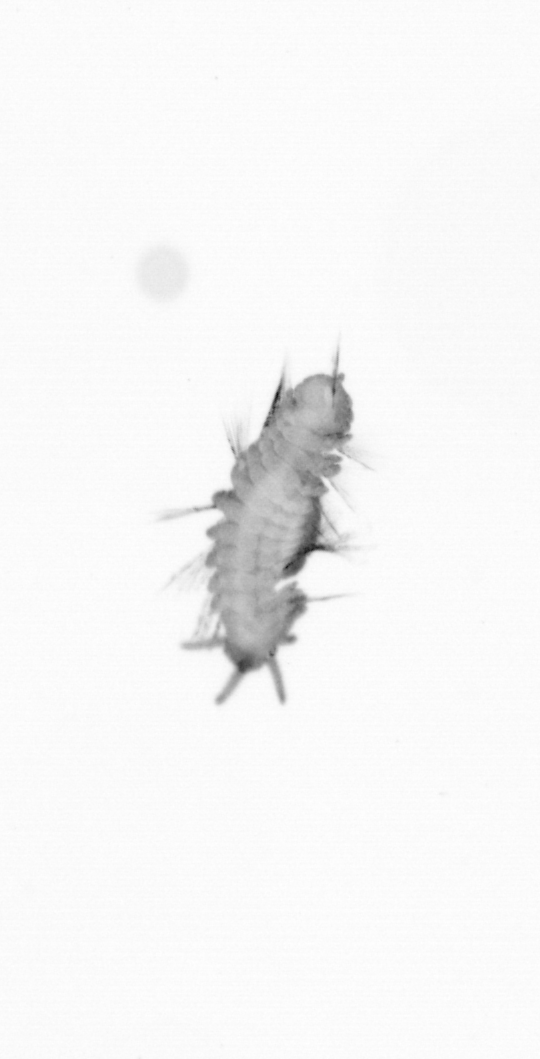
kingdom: Animalia
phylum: Annelida
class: Polychaeta
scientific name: Polychaeta
